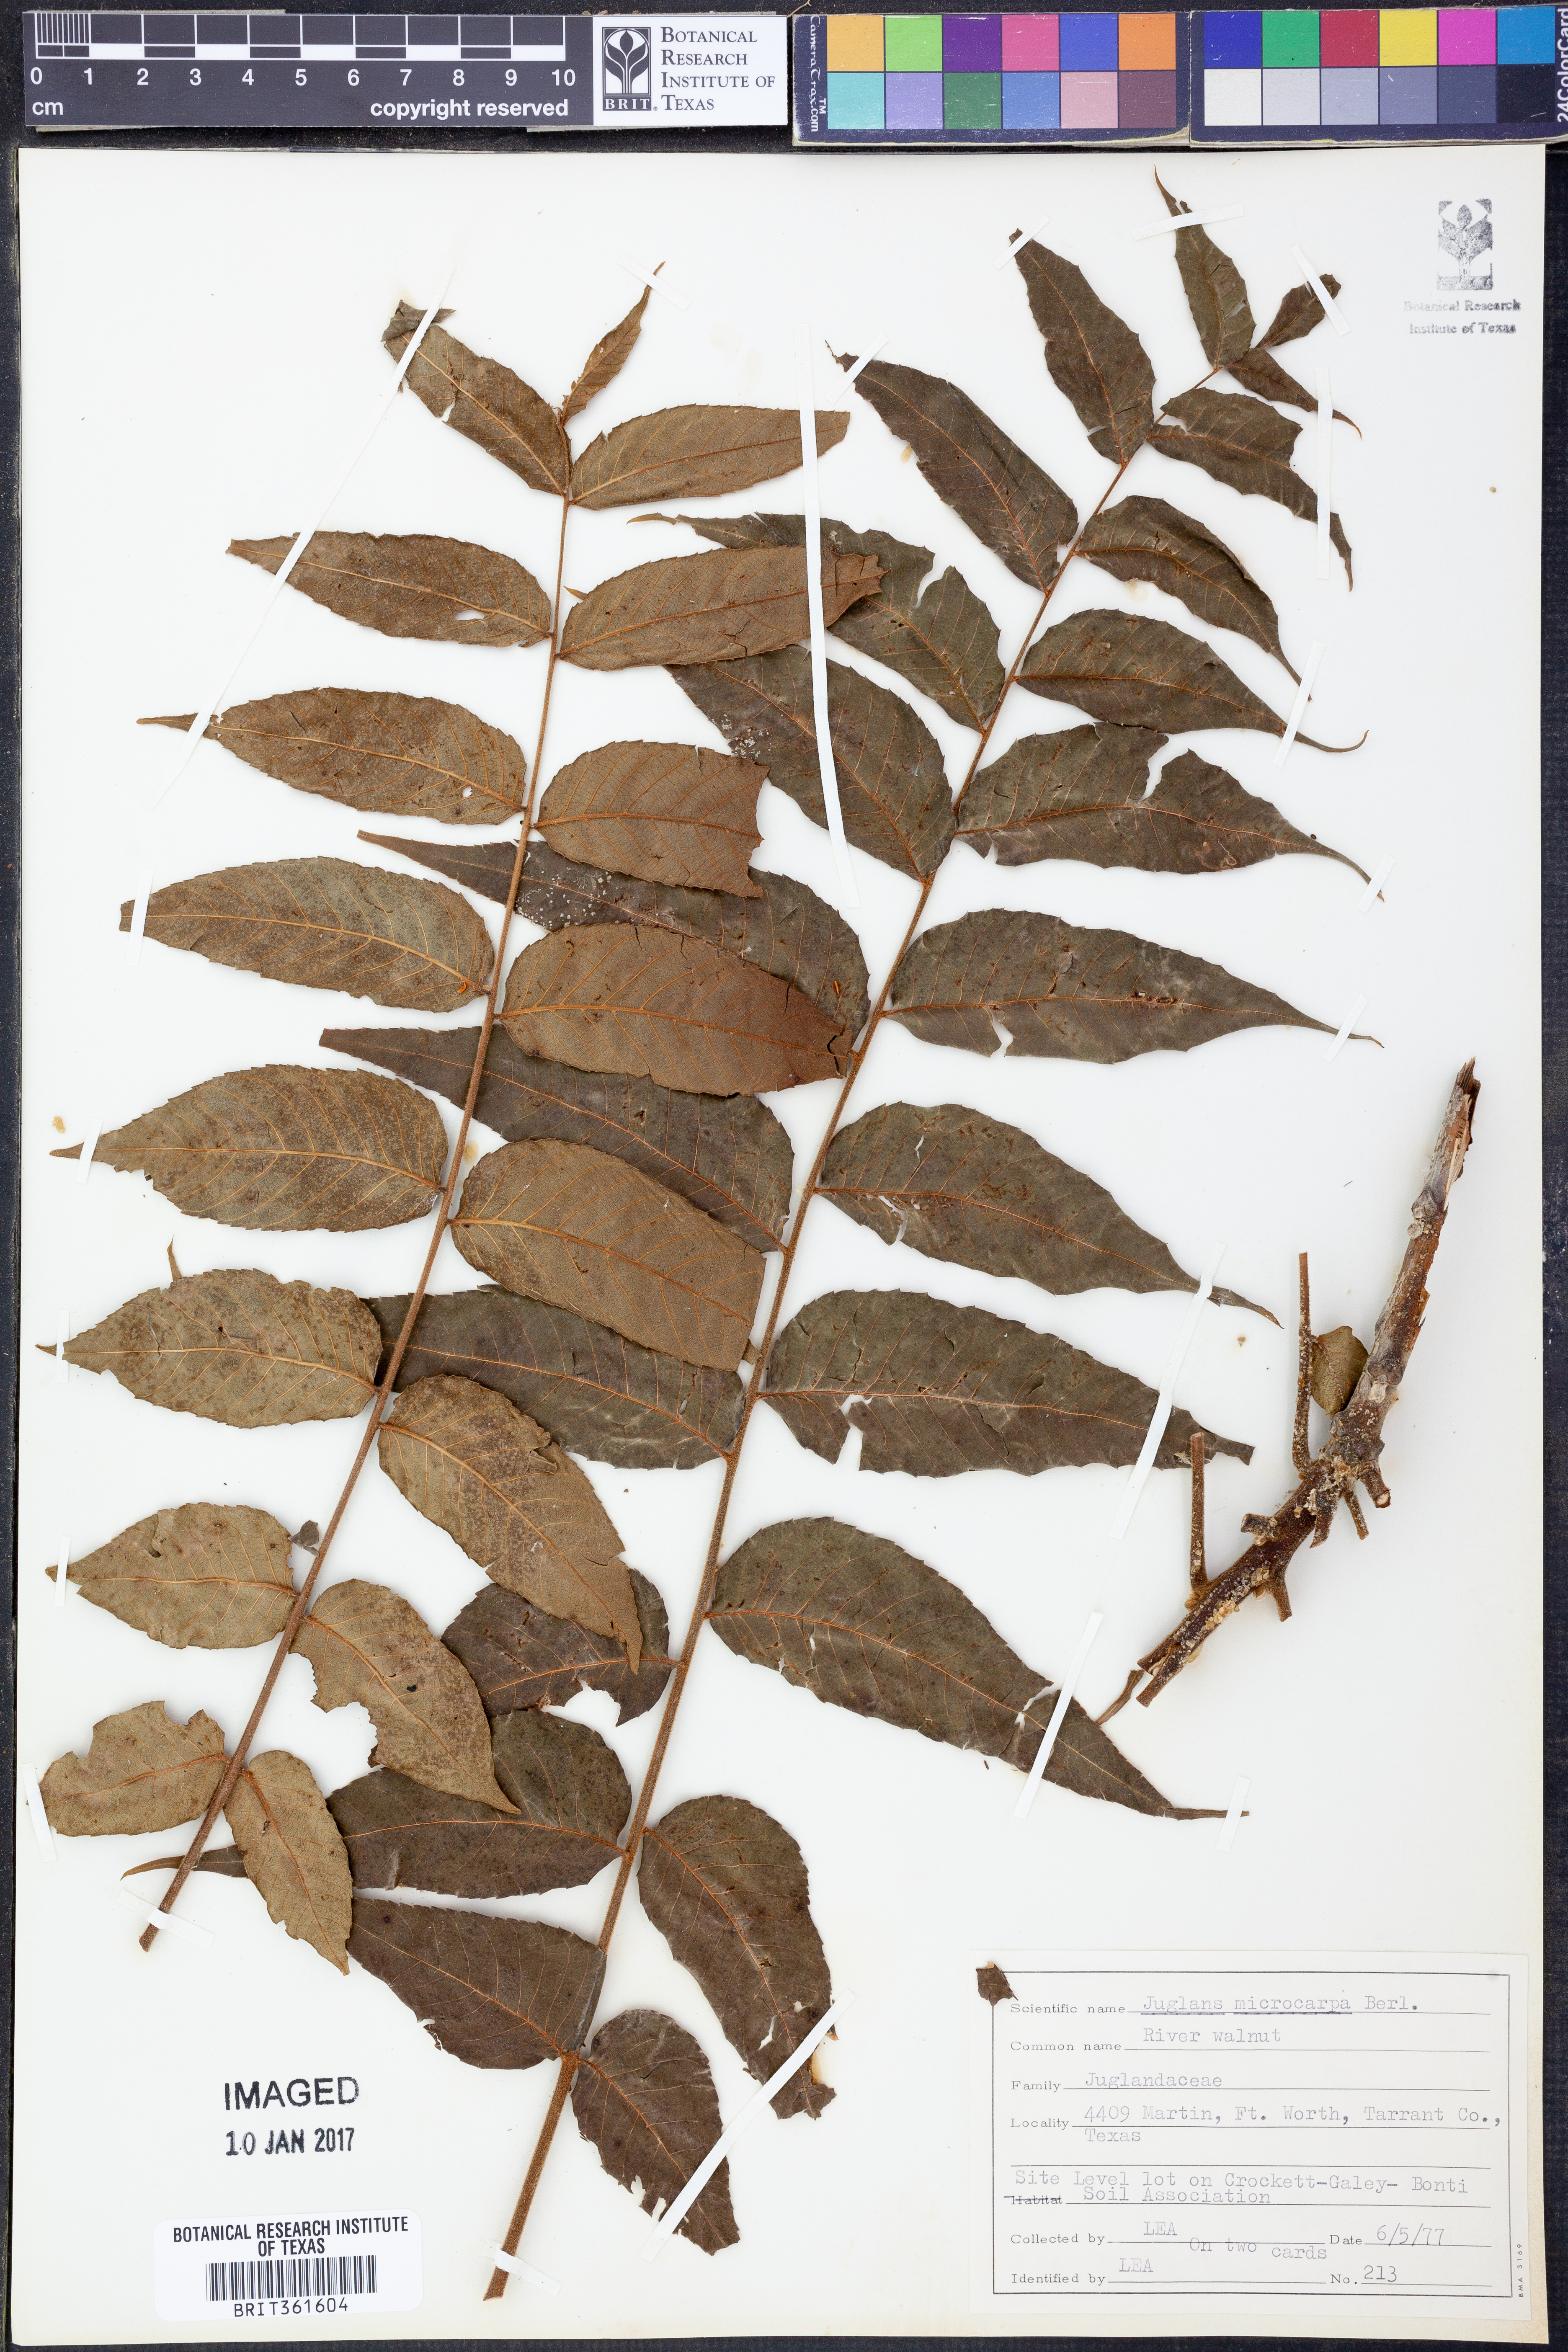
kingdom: Plantae
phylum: Tracheophyta
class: Magnoliopsida
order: Fagales
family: Juglandaceae
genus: Juglans
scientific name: Juglans microcarpa
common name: Texas walnut
